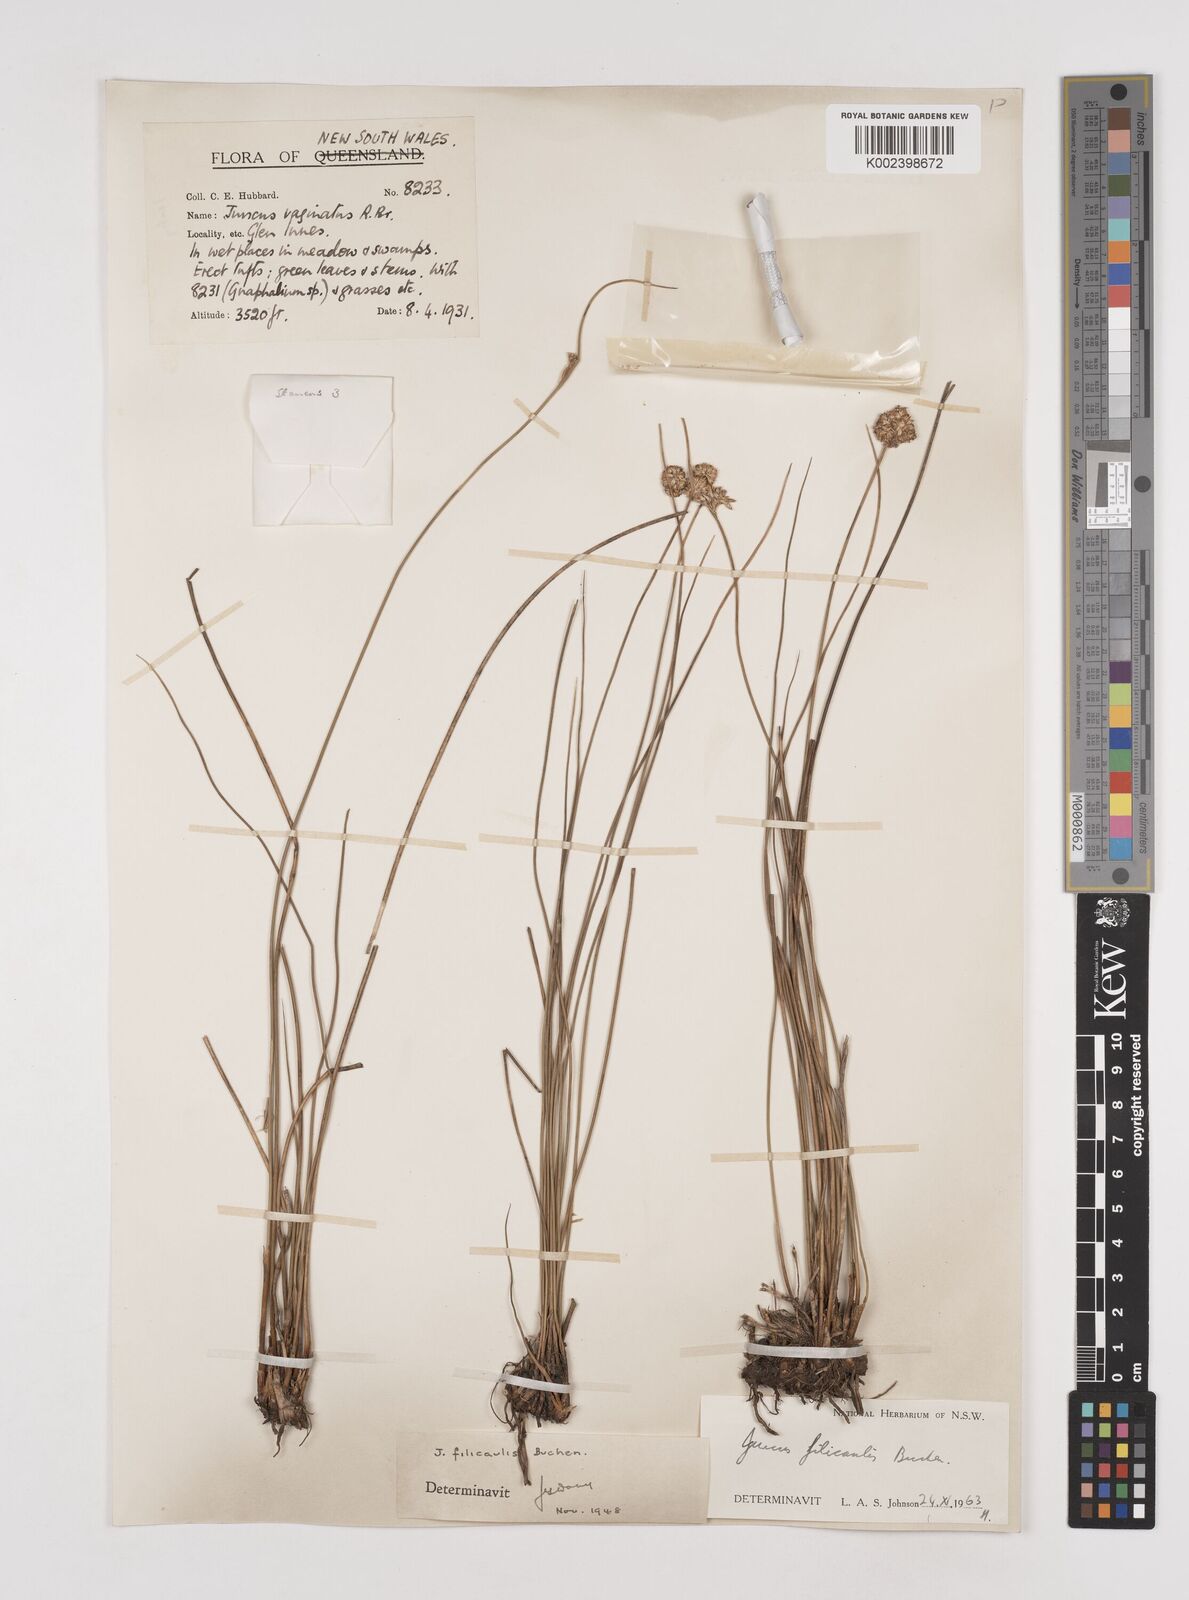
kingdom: Plantae
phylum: Tracheophyta
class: Liliopsida
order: Poales
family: Juncaceae
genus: Juncus
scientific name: Juncus filicaulis
